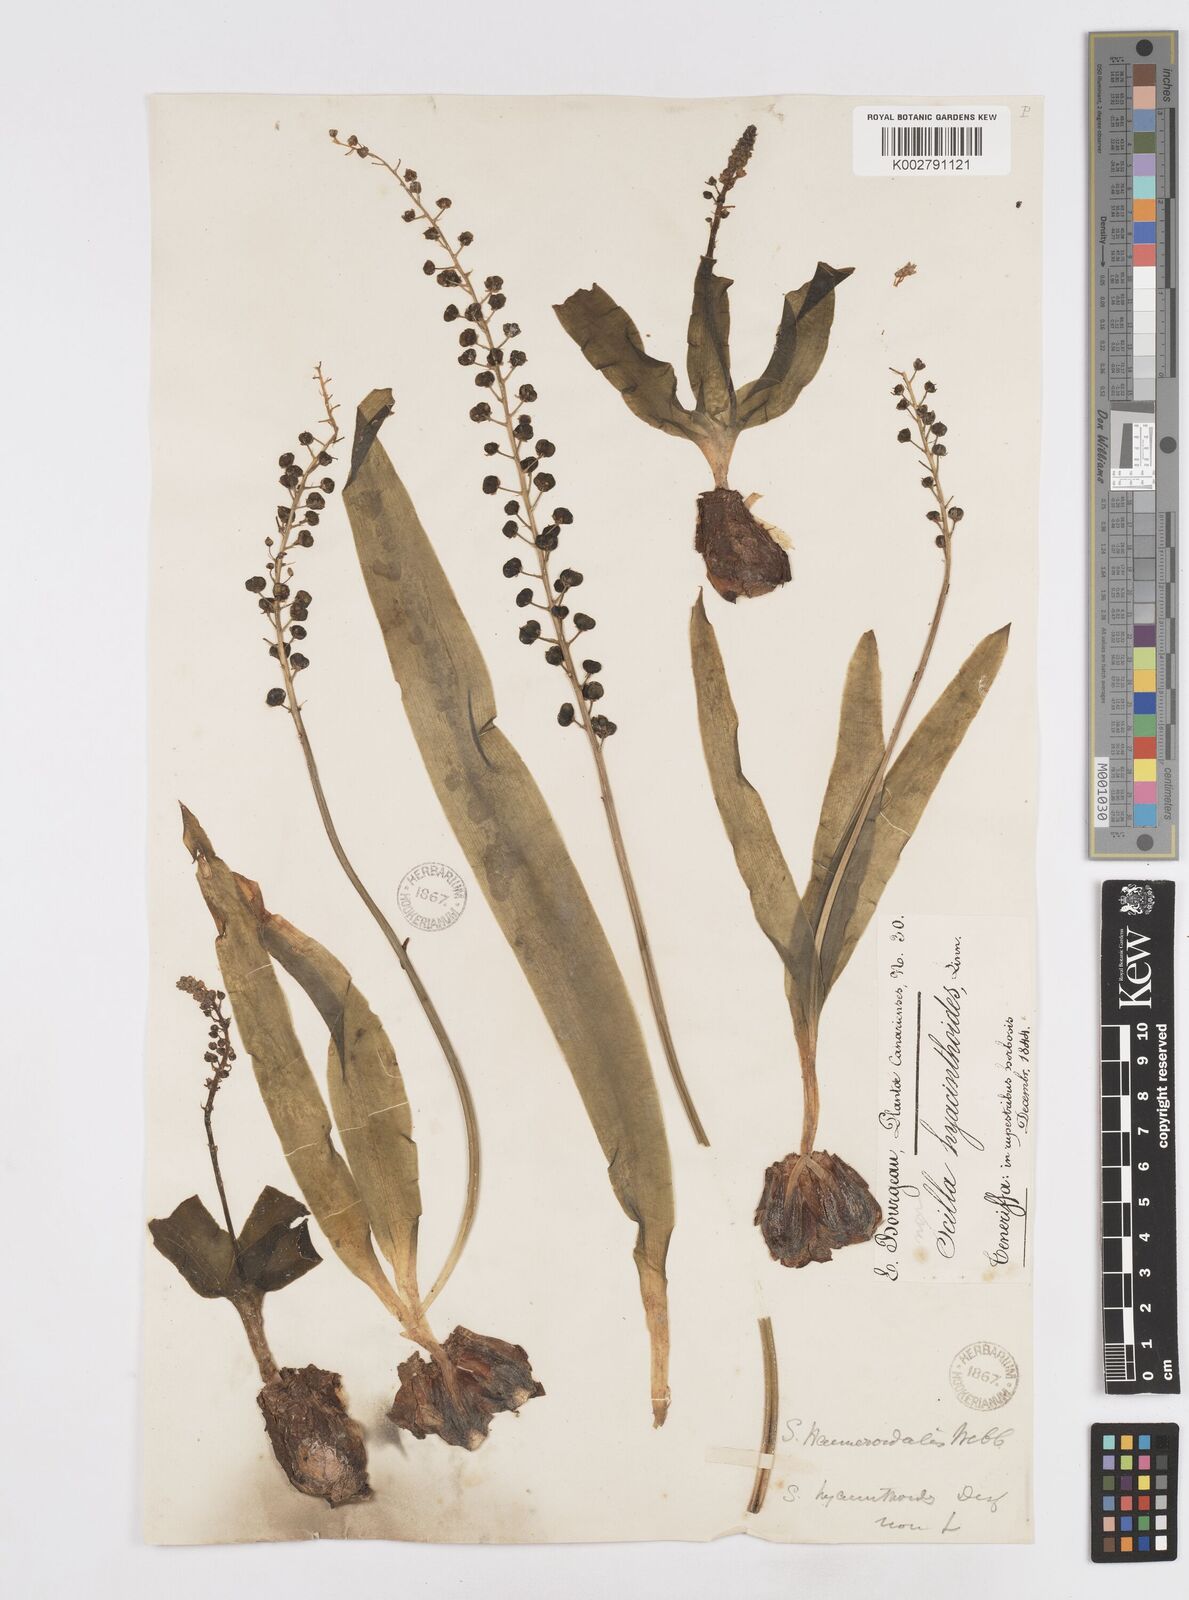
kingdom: Plantae
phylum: Tracheophyta
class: Liliopsida
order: Asparagales
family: Asparagaceae
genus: Scilla
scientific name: Scilla haemorrhoidalis
